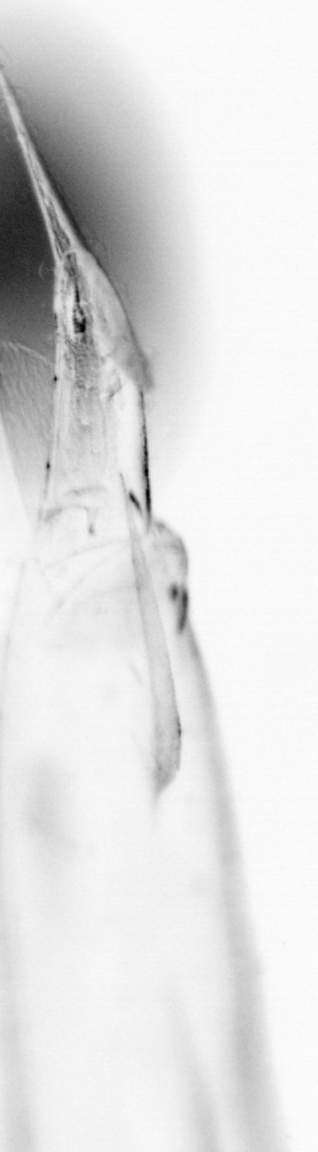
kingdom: Animalia
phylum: Chordata
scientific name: Chordata
